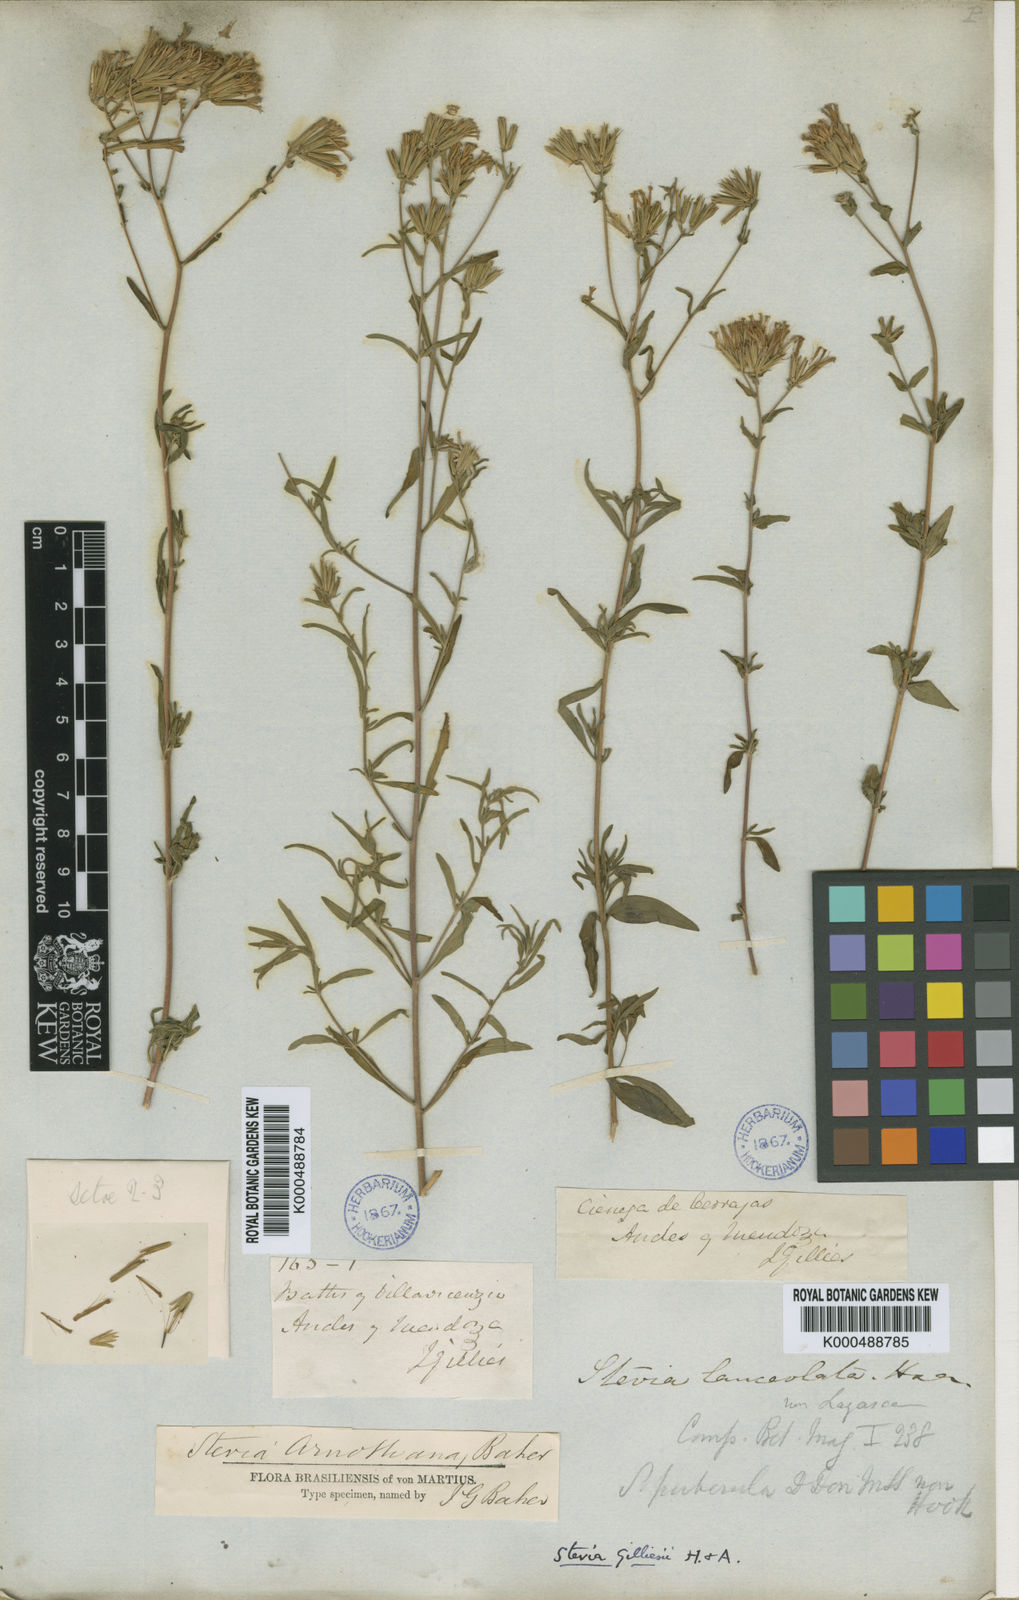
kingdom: Plantae
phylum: Tracheophyta
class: Magnoliopsida
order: Asterales
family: Asteraceae
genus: Stevia
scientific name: Stevia gilliesii
